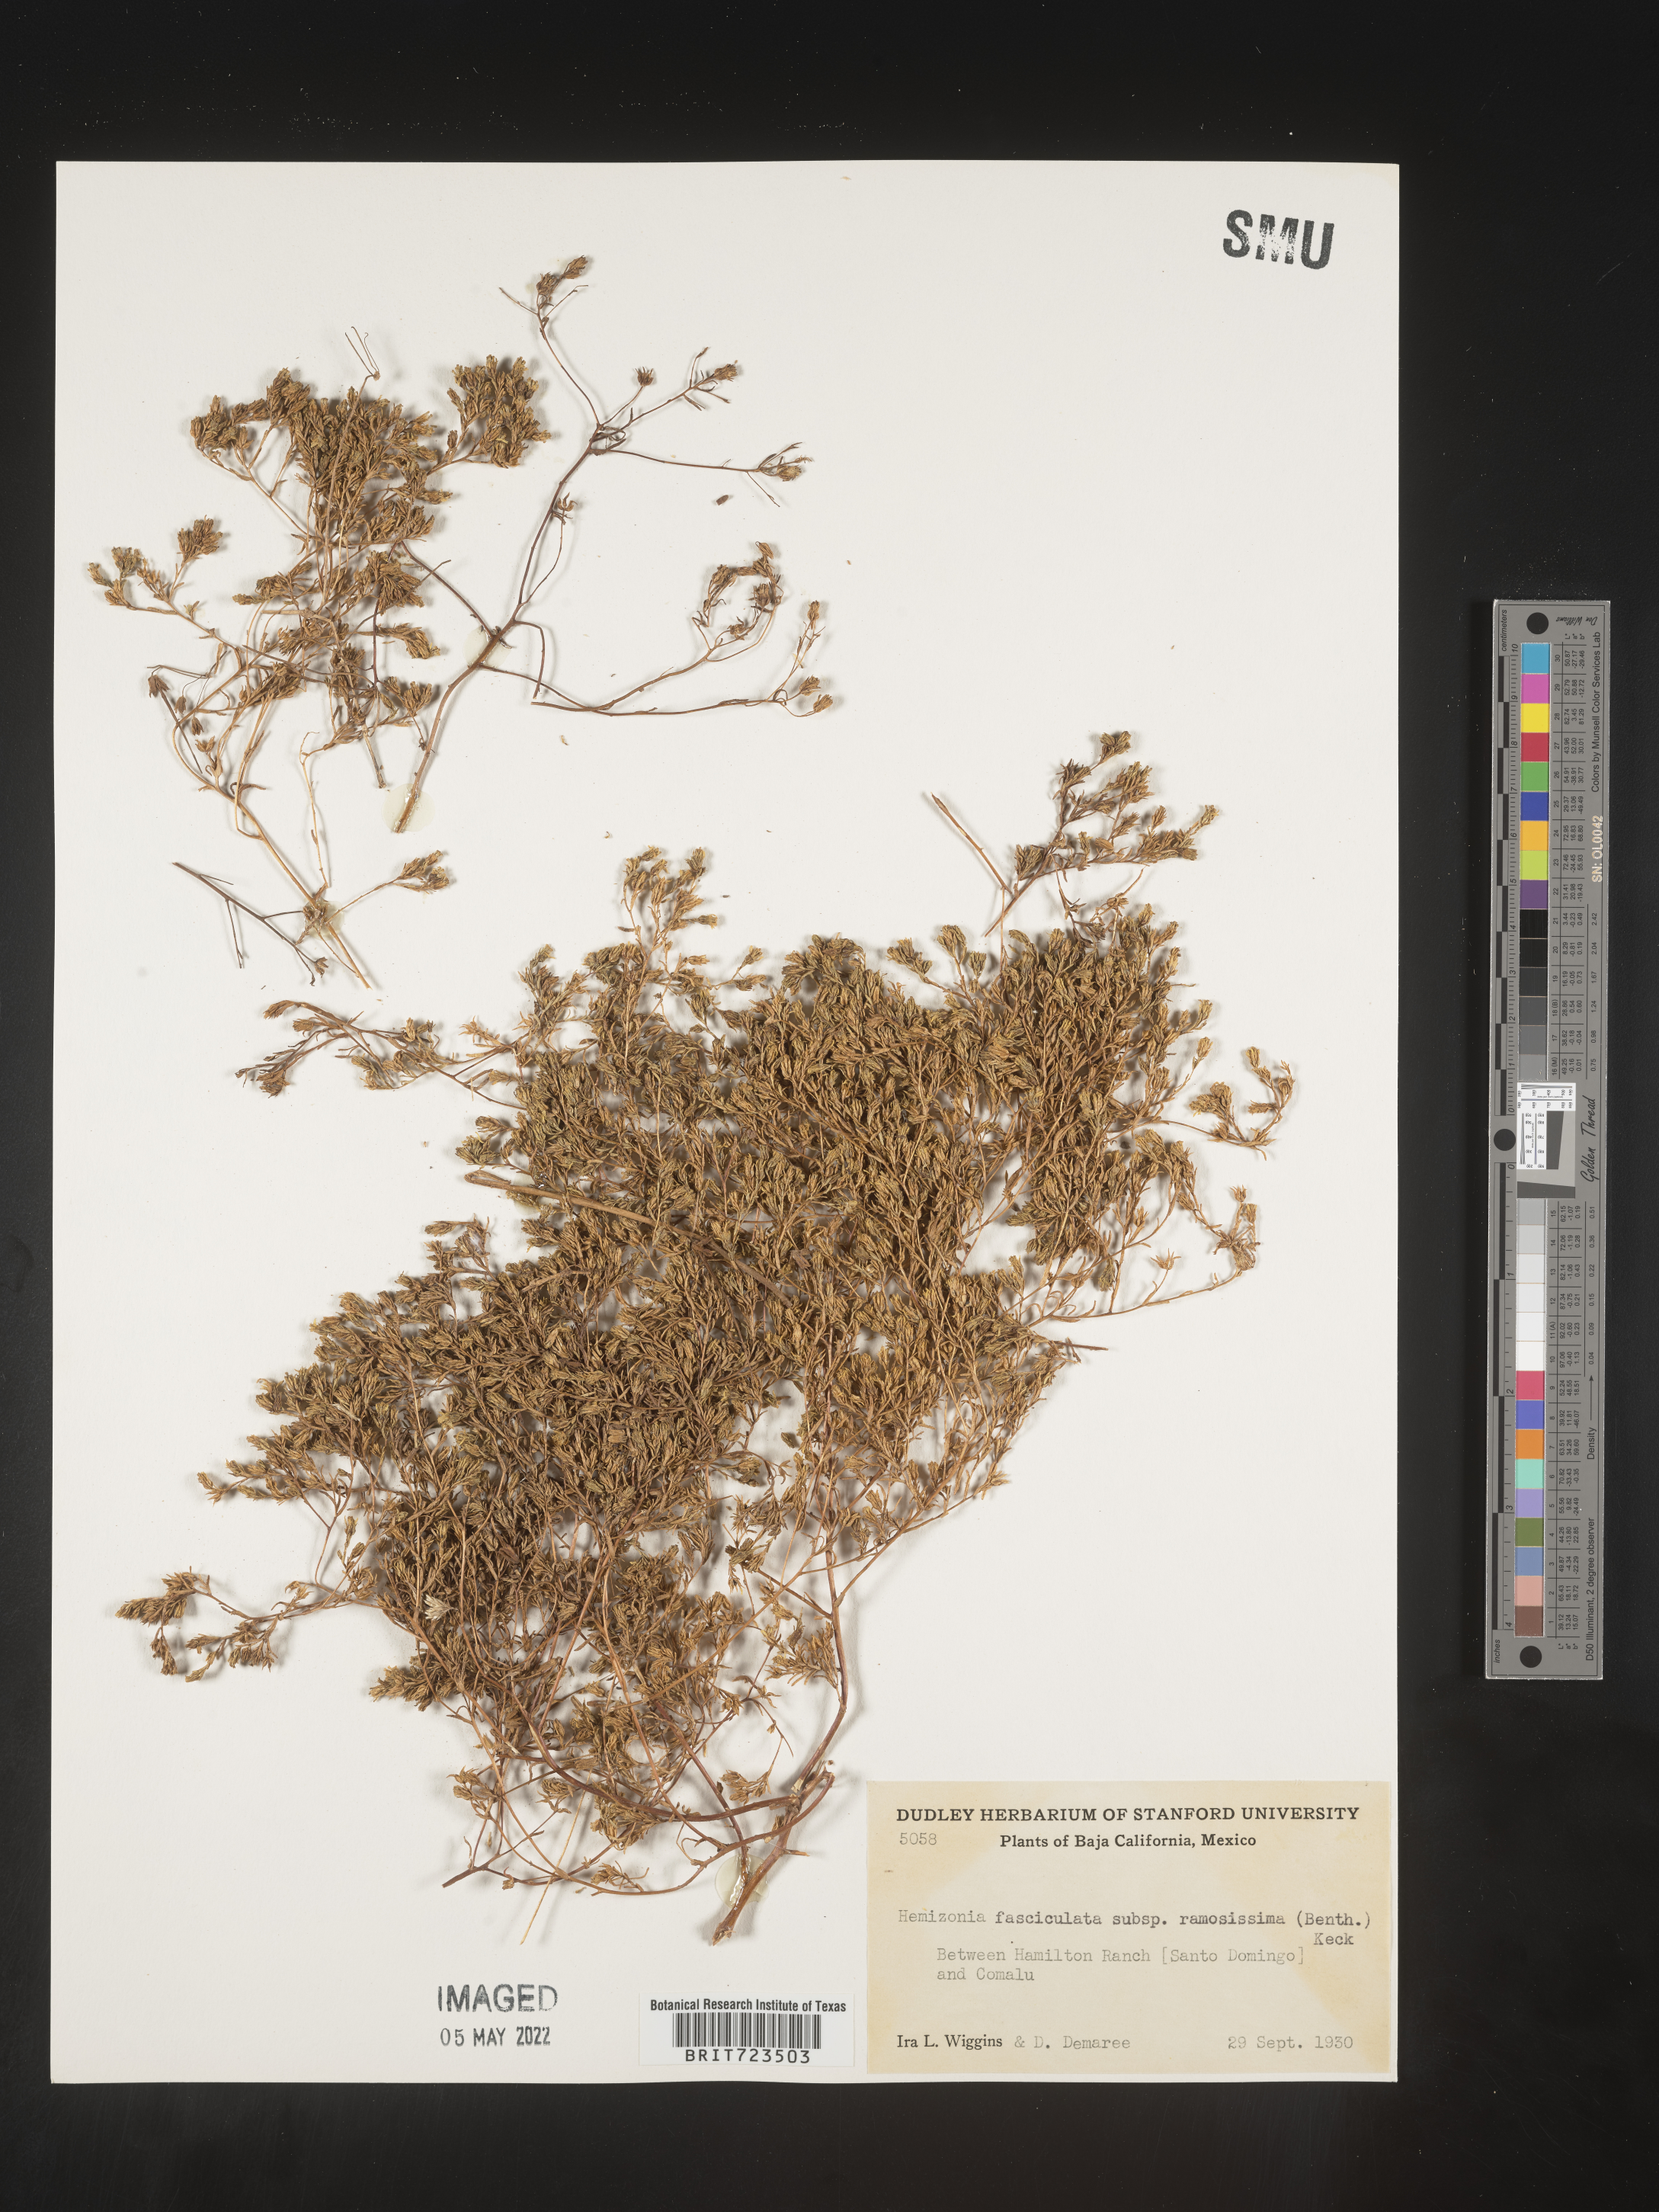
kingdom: Plantae
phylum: Tracheophyta
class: Magnoliopsida
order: Asterales
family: Asteraceae
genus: Hemizonia
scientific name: Hemizonia
